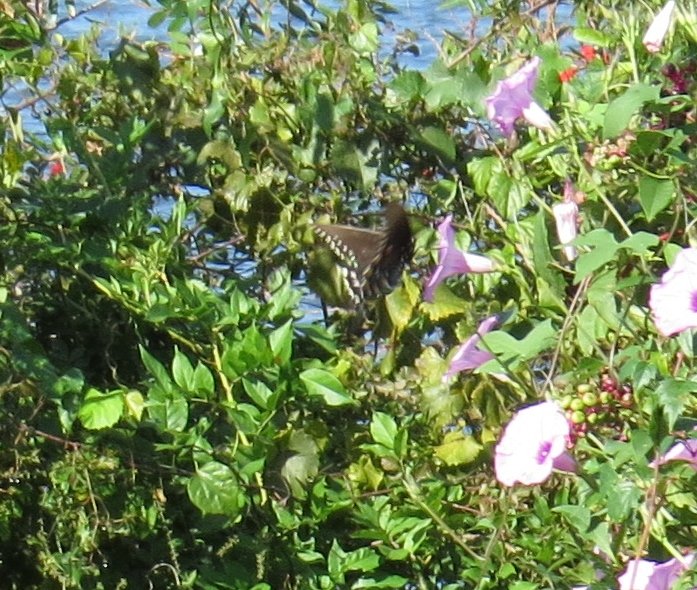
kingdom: Animalia
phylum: Arthropoda
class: Insecta
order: Lepidoptera
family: Papilionidae
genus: Pterourus
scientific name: Pterourus troilus
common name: Spicebush Swallowtail
